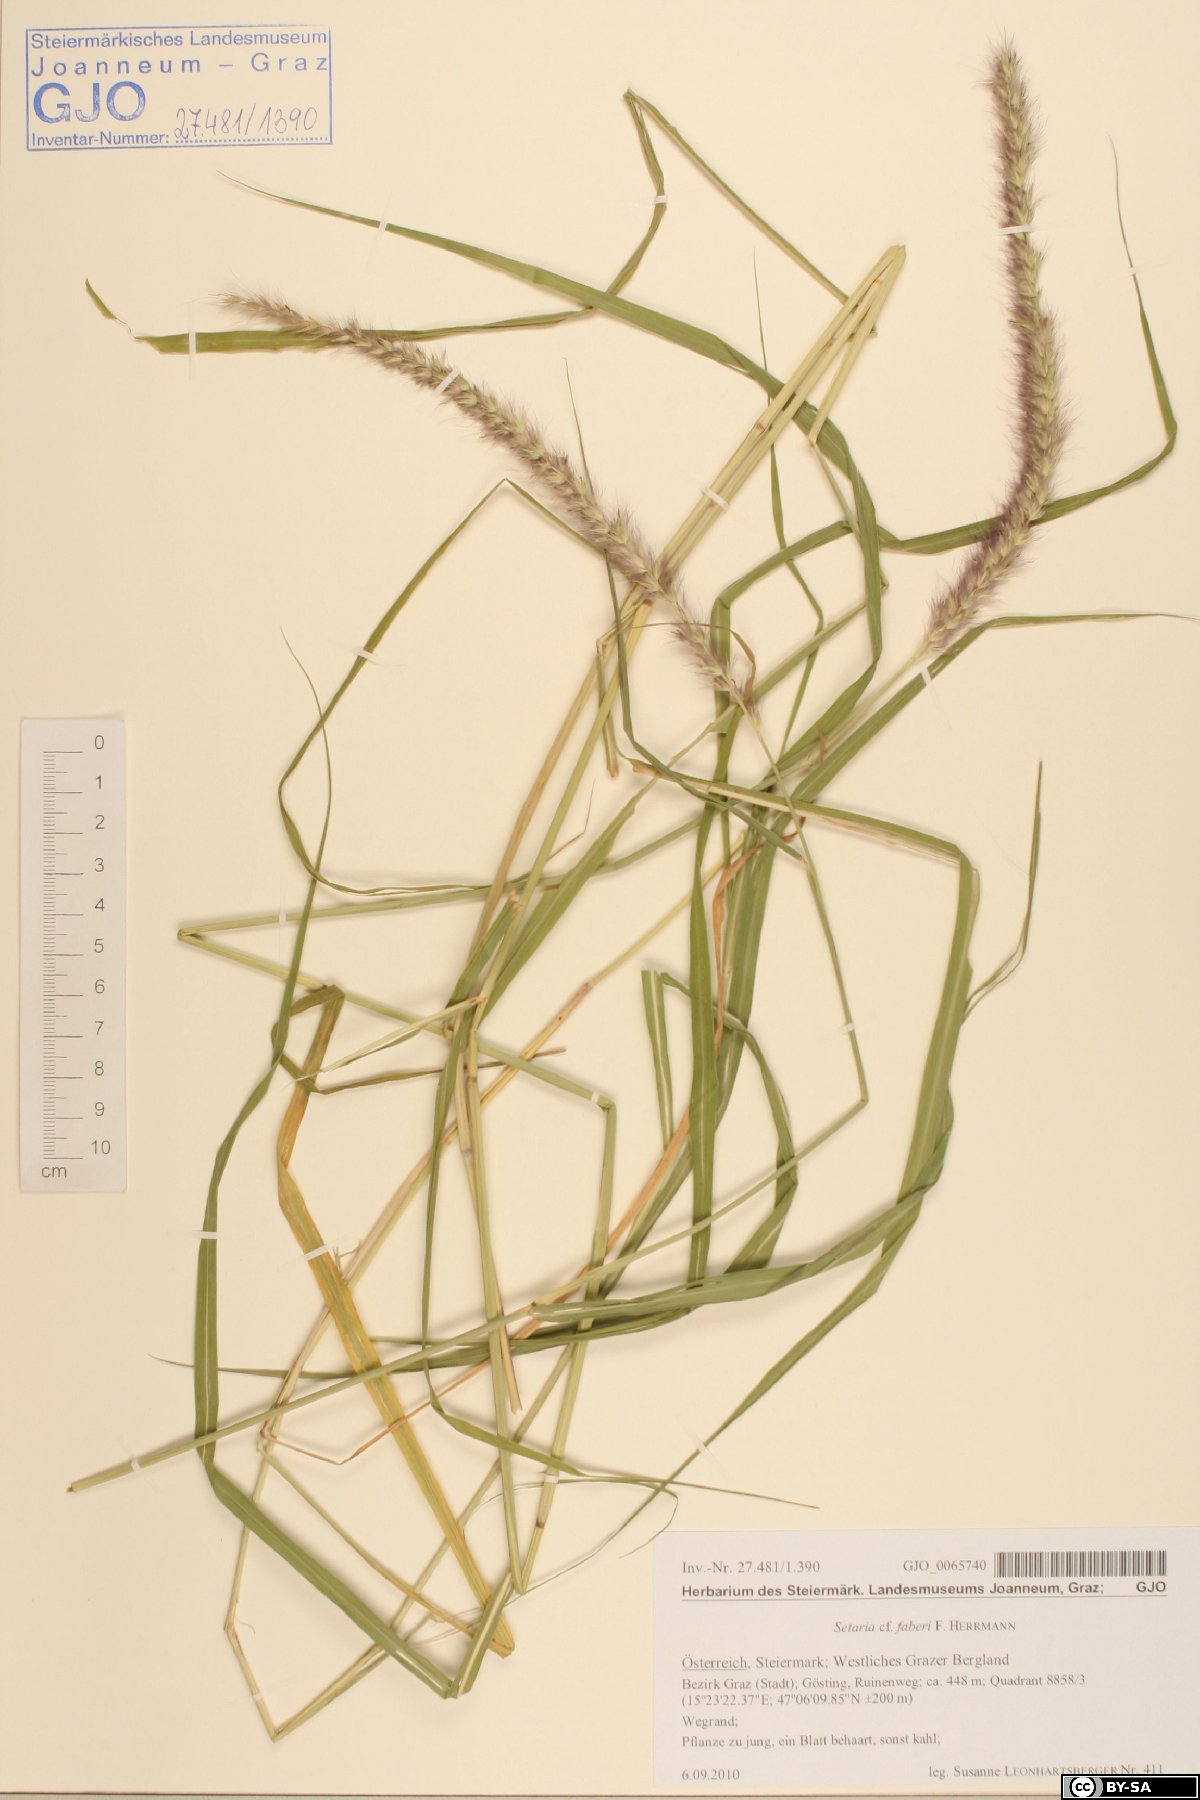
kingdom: Plantae
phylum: Tracheophyta
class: Liliopsida
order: Poales
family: Poaceae
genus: Setaria
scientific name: Setaria faberi
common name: Nodding bristle-grass
